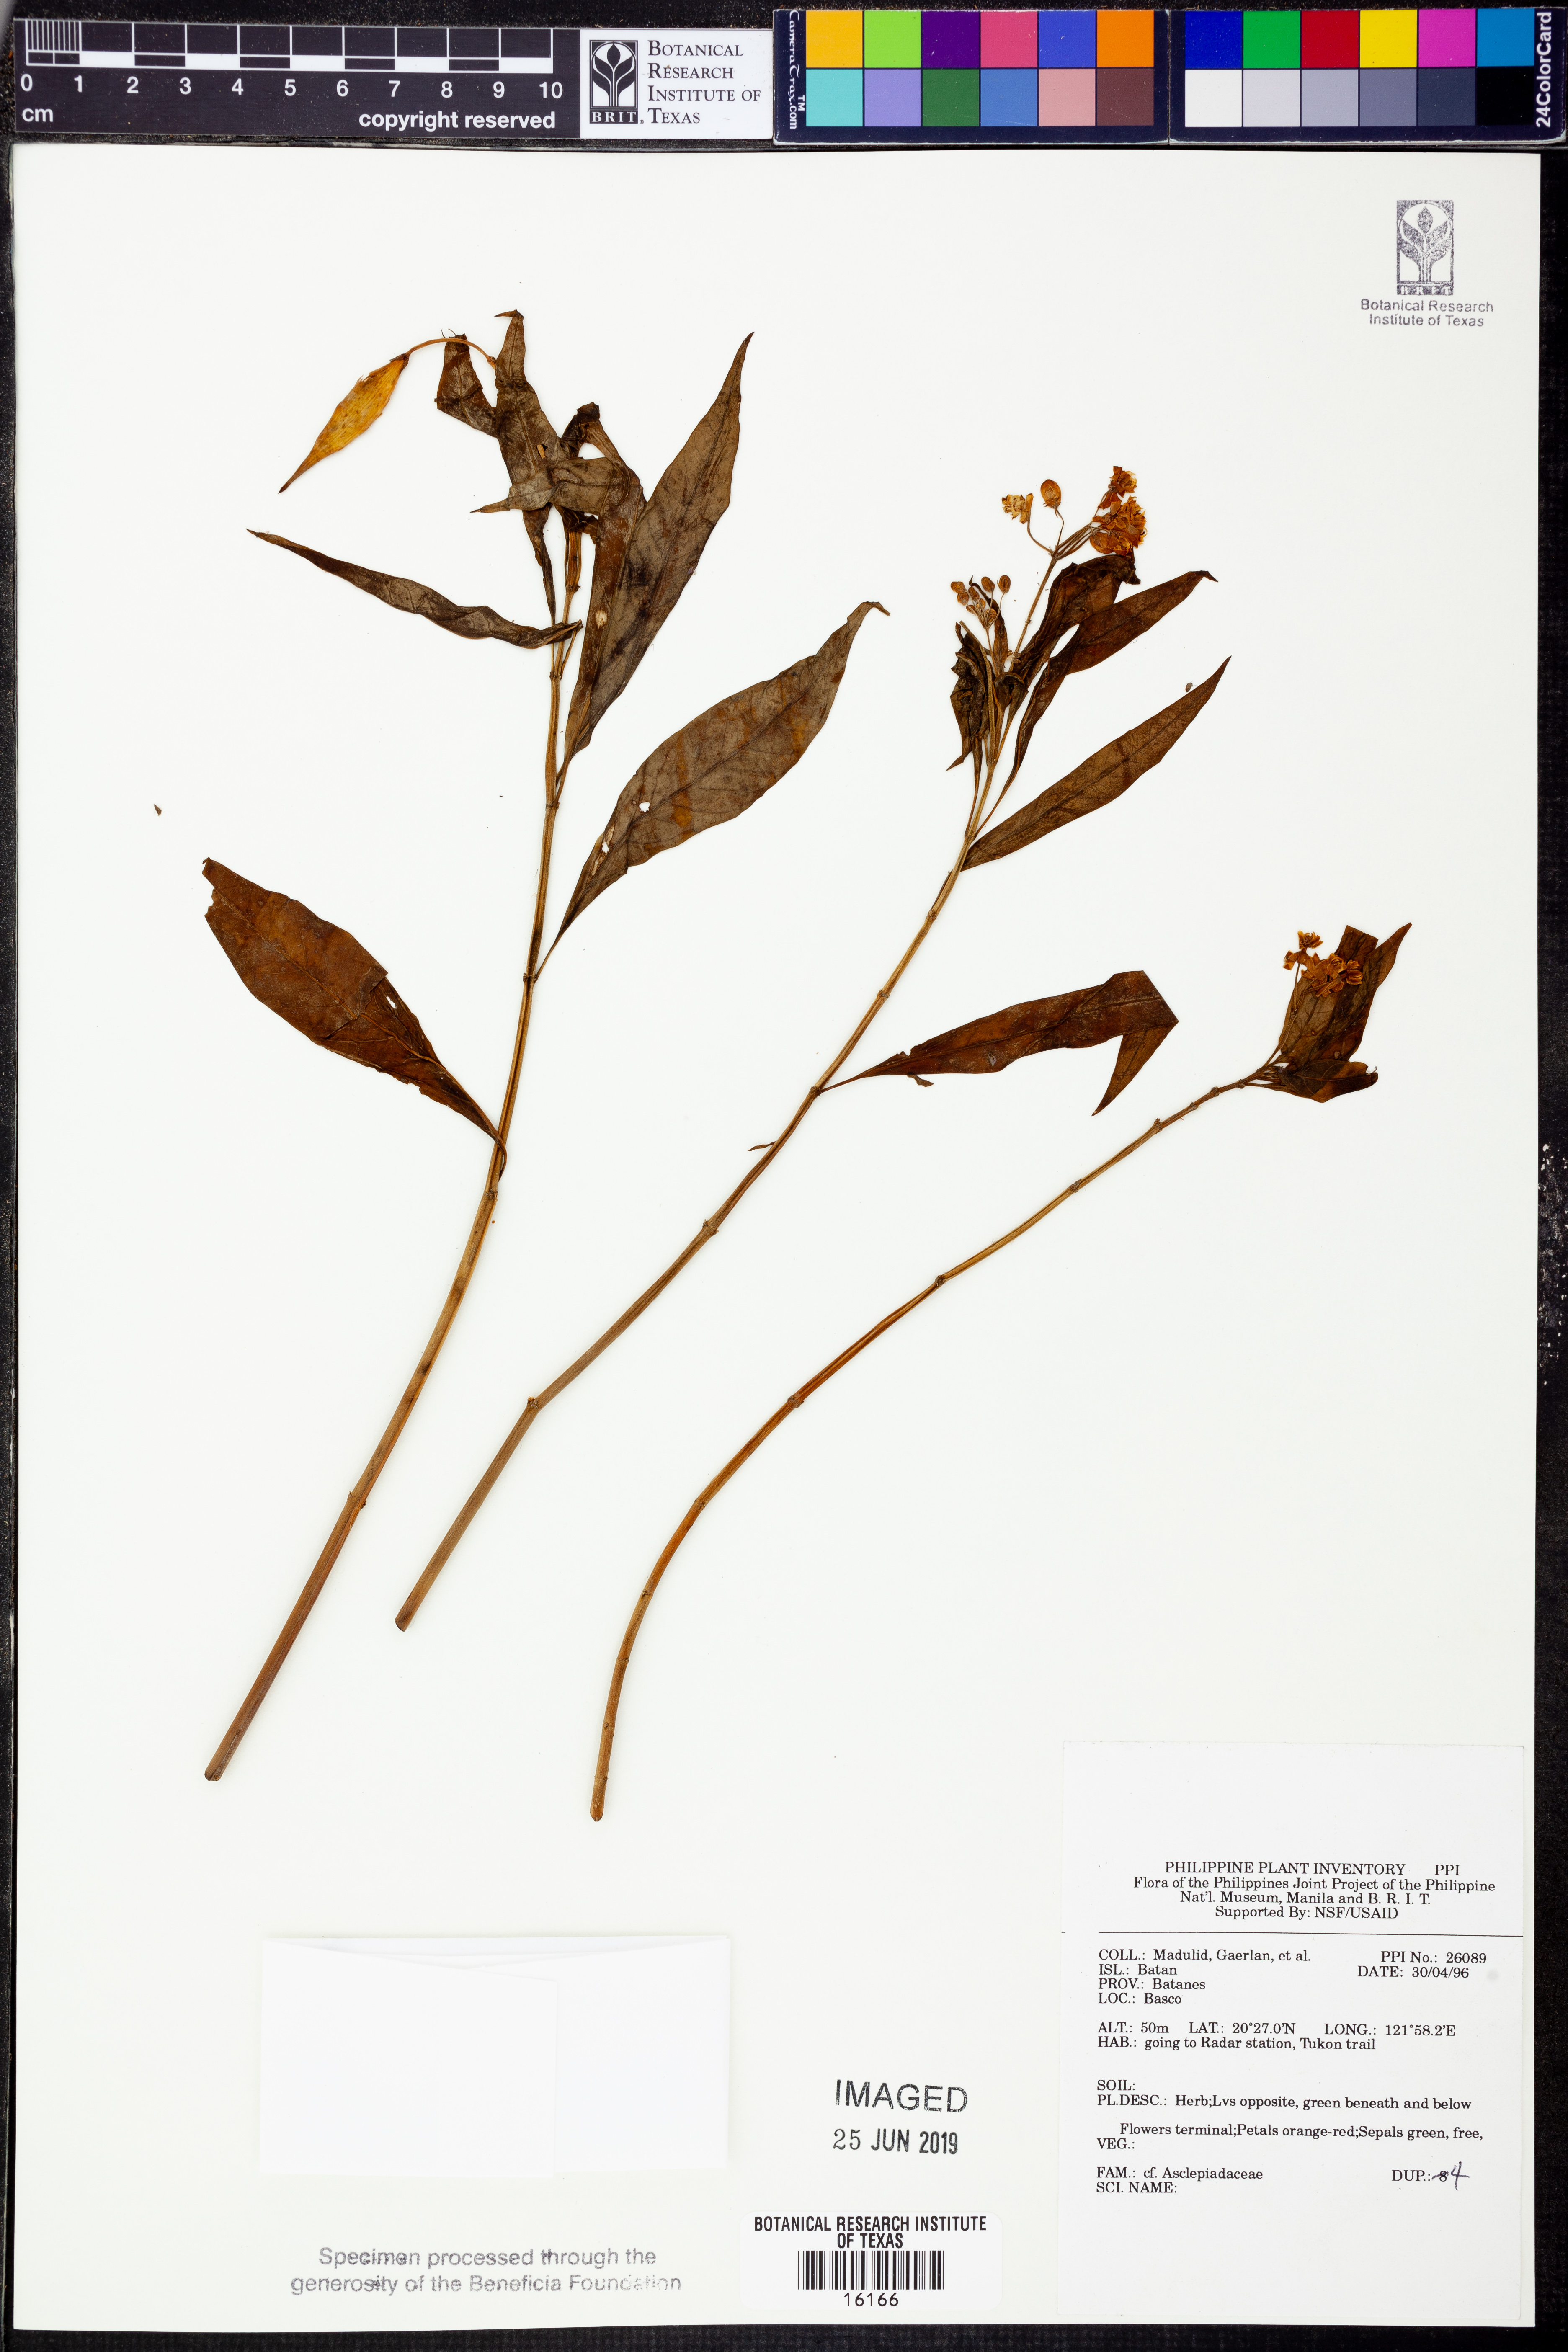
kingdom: Plantae
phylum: Tracheophyta
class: Magnoliopsida
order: Gentianales
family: Apocynaceae
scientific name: Apocynaceae
